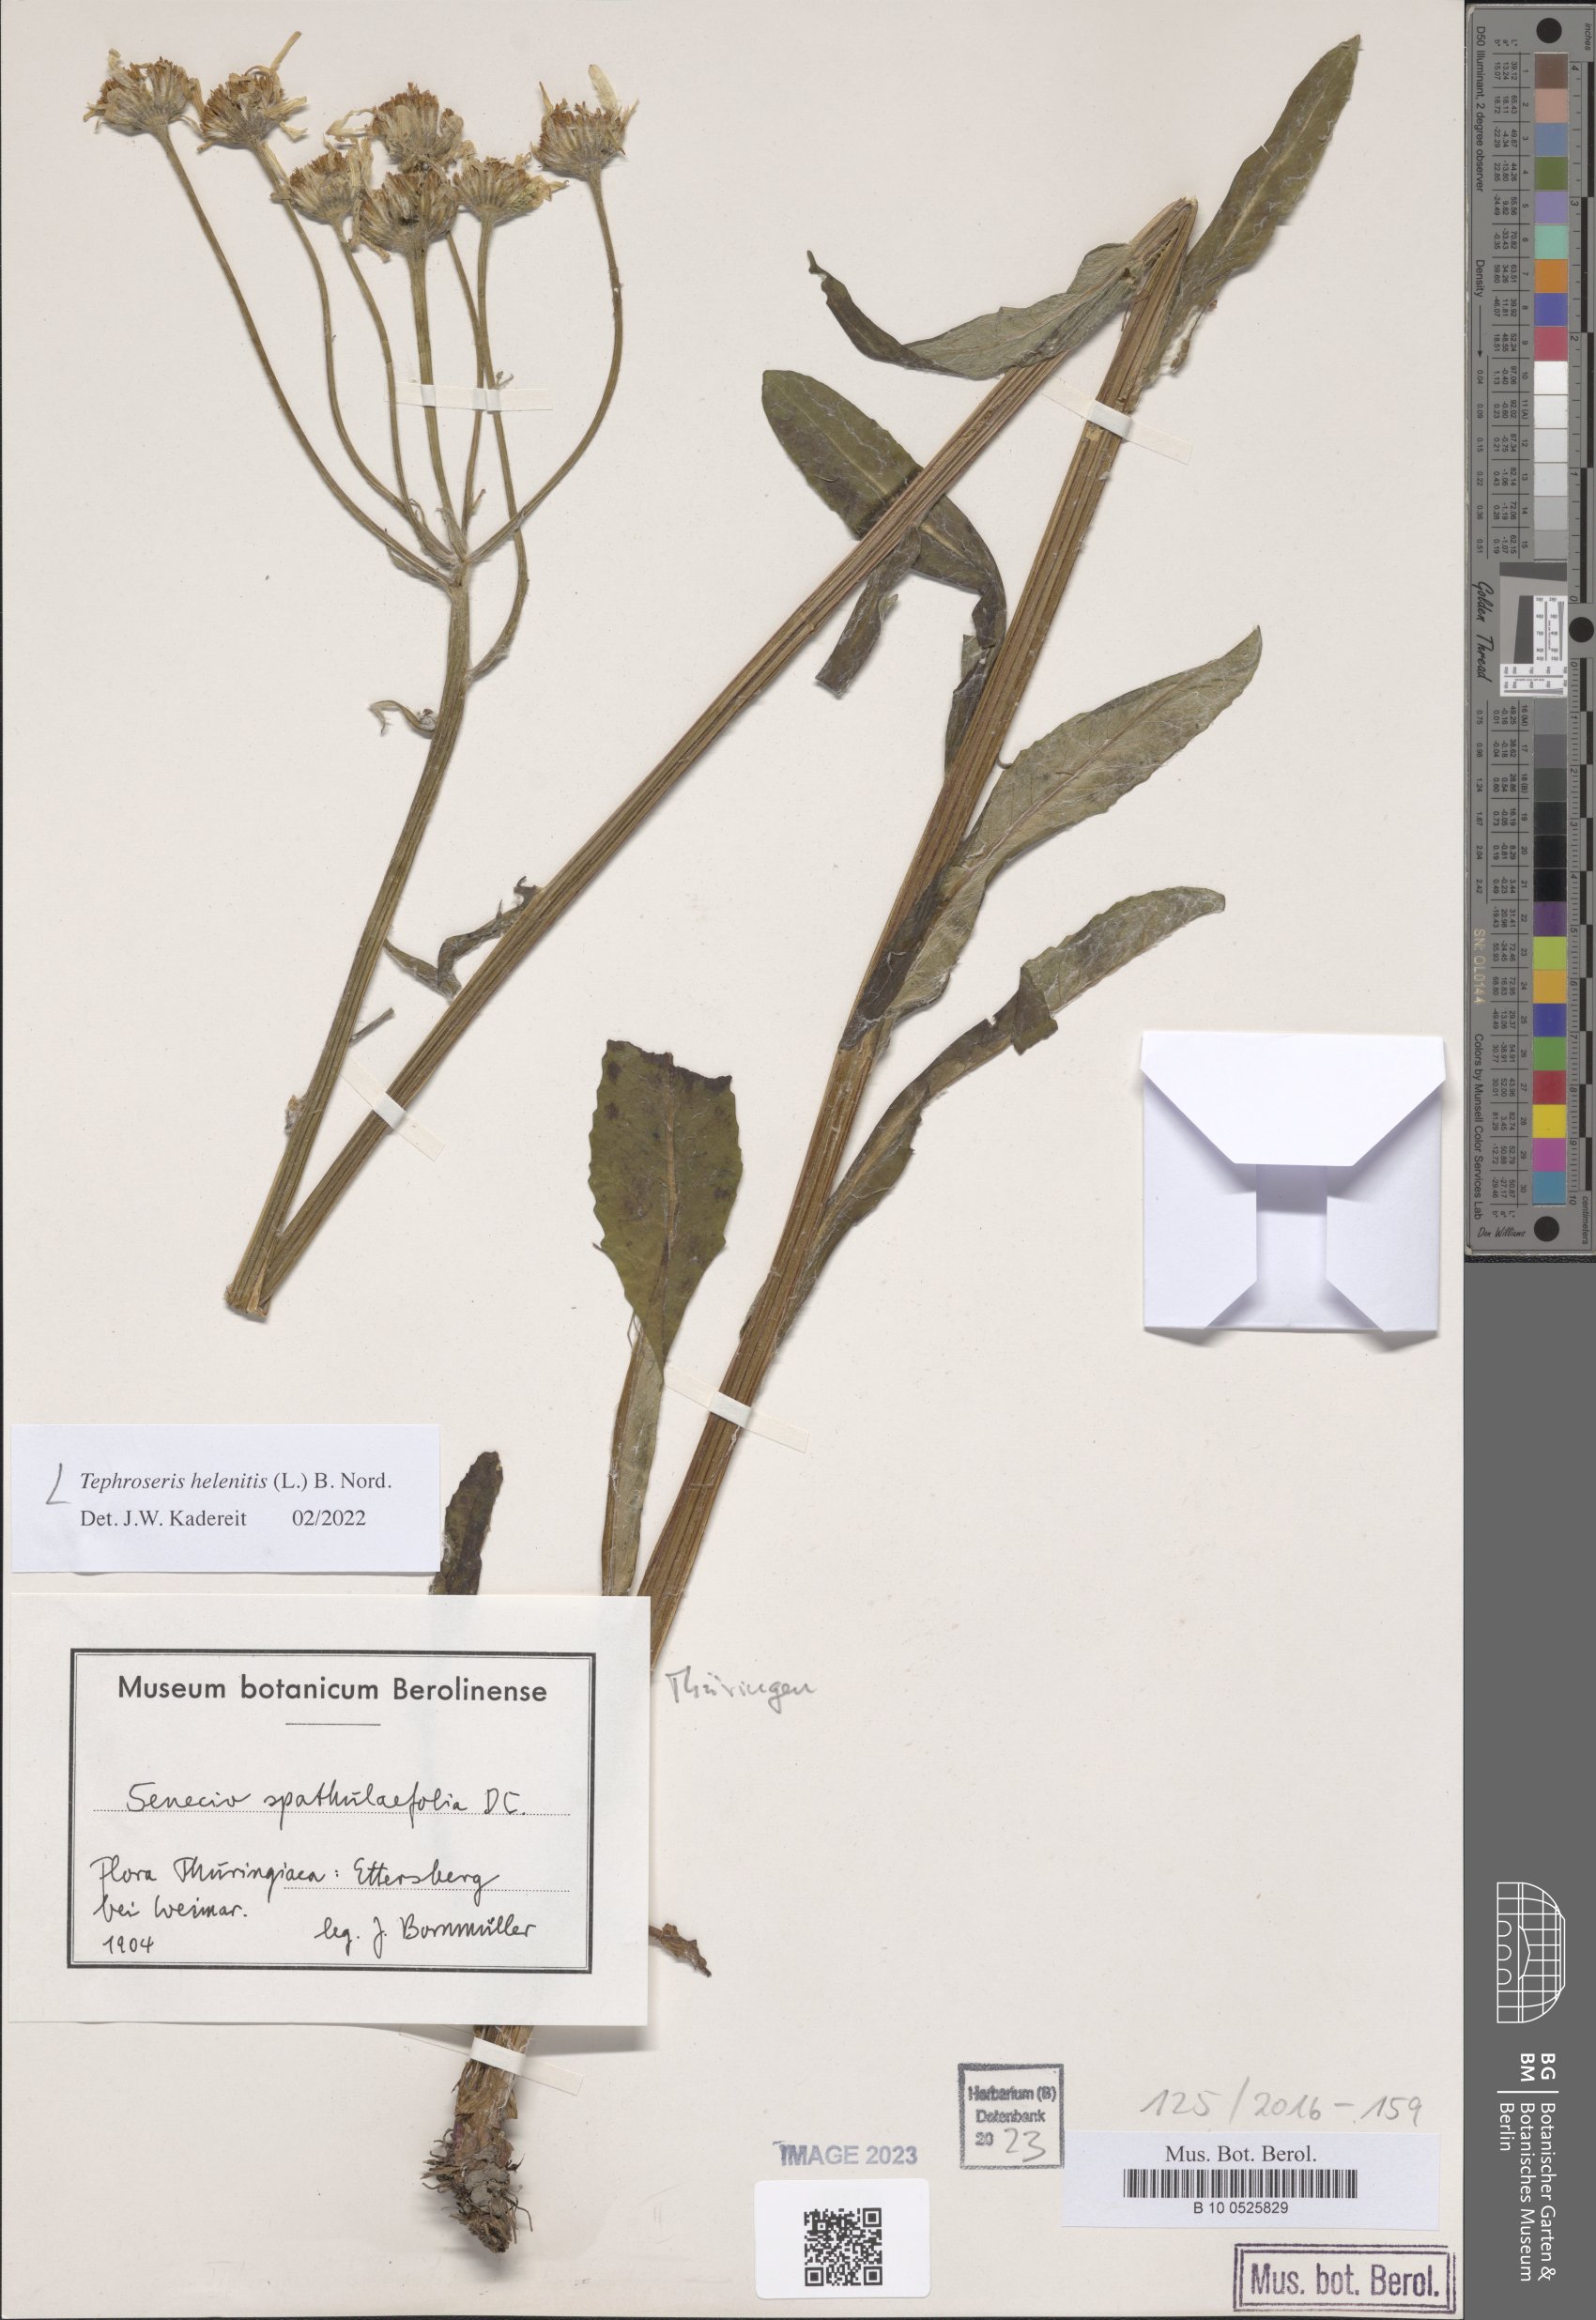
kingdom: Plantae
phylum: Tracheophyta
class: Magnoliopsida
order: Asterales
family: Asteraceae
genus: Tephroseris
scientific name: Tephroseris helenitis
